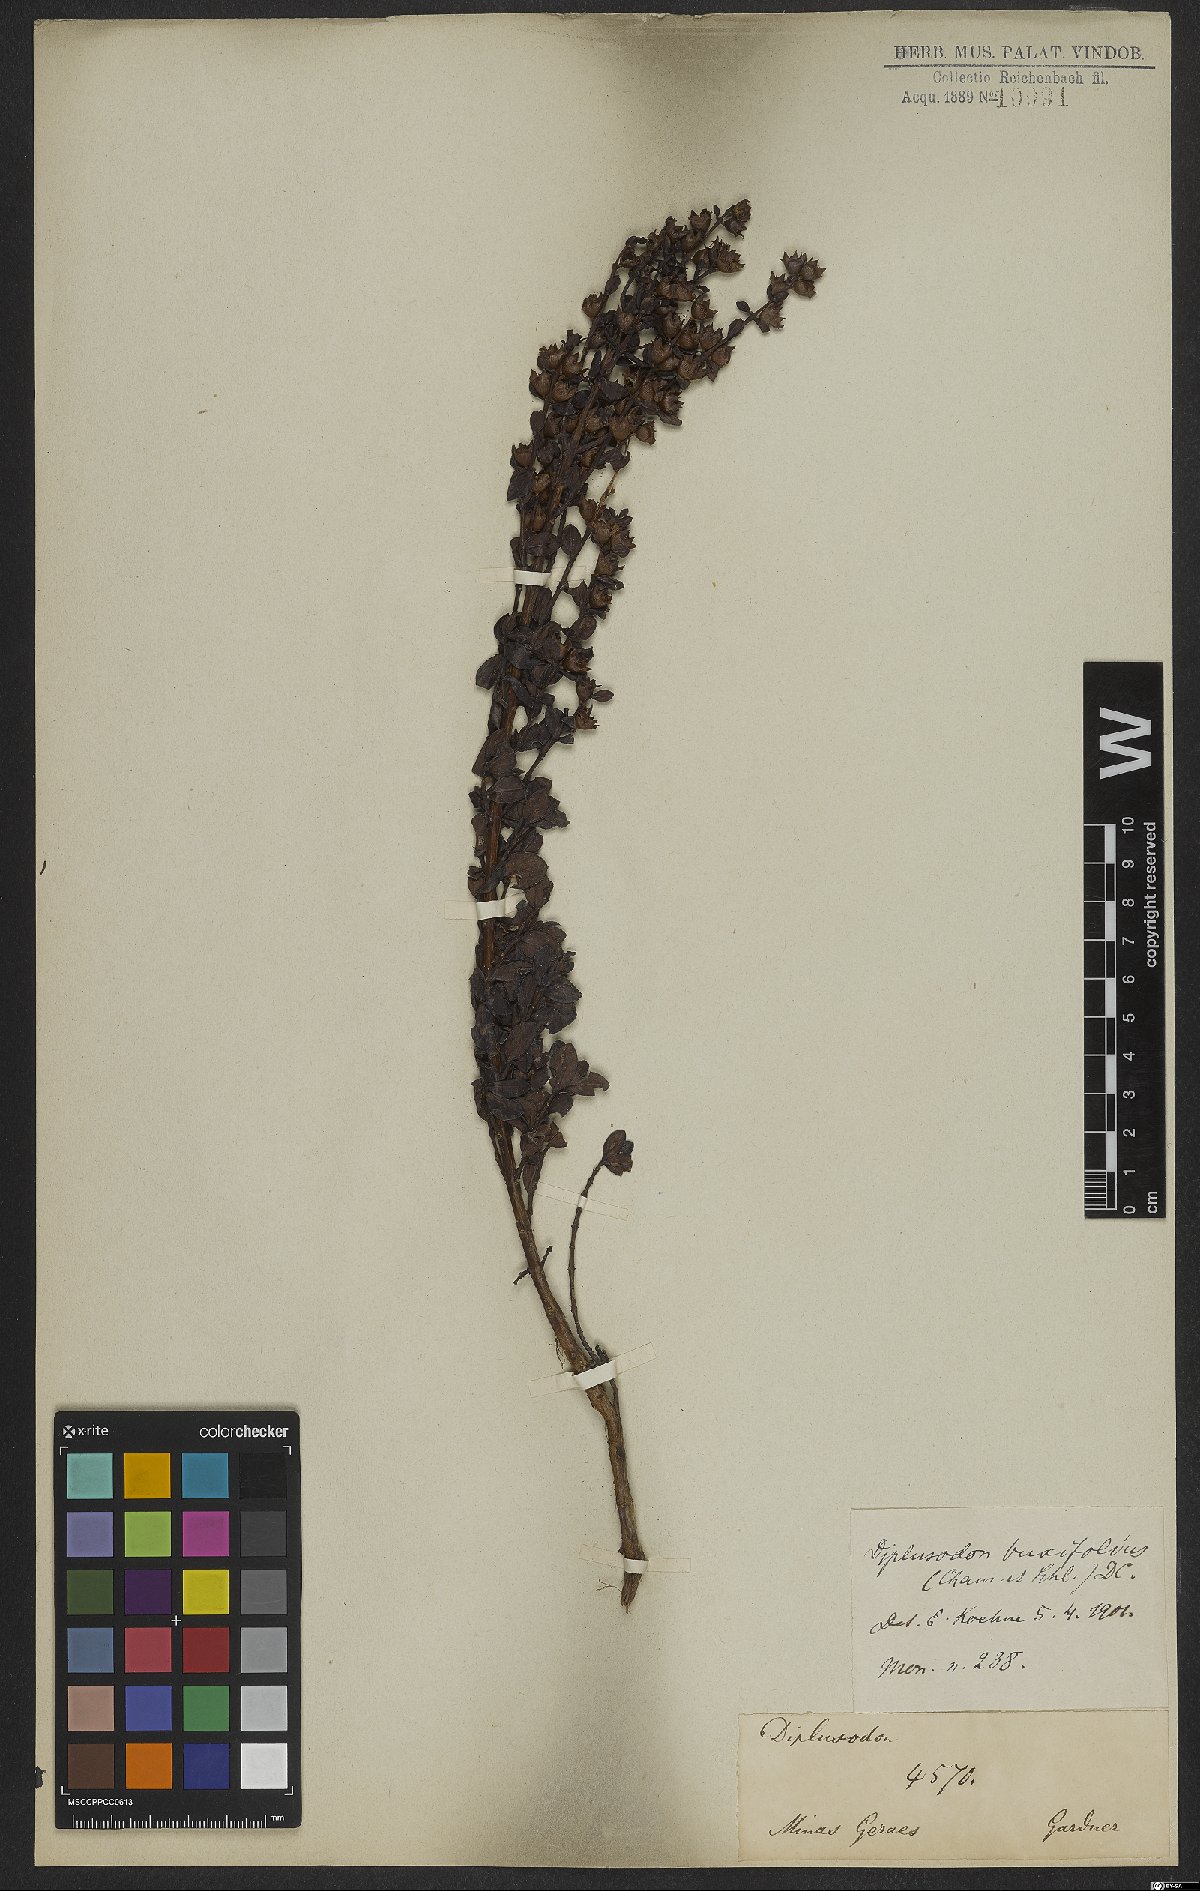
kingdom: Plantae
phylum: Tracheophyta
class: Magnoliopsida
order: Myrtales
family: Lythraceae
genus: Diplusodon
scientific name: Diplusodon buxifolius
